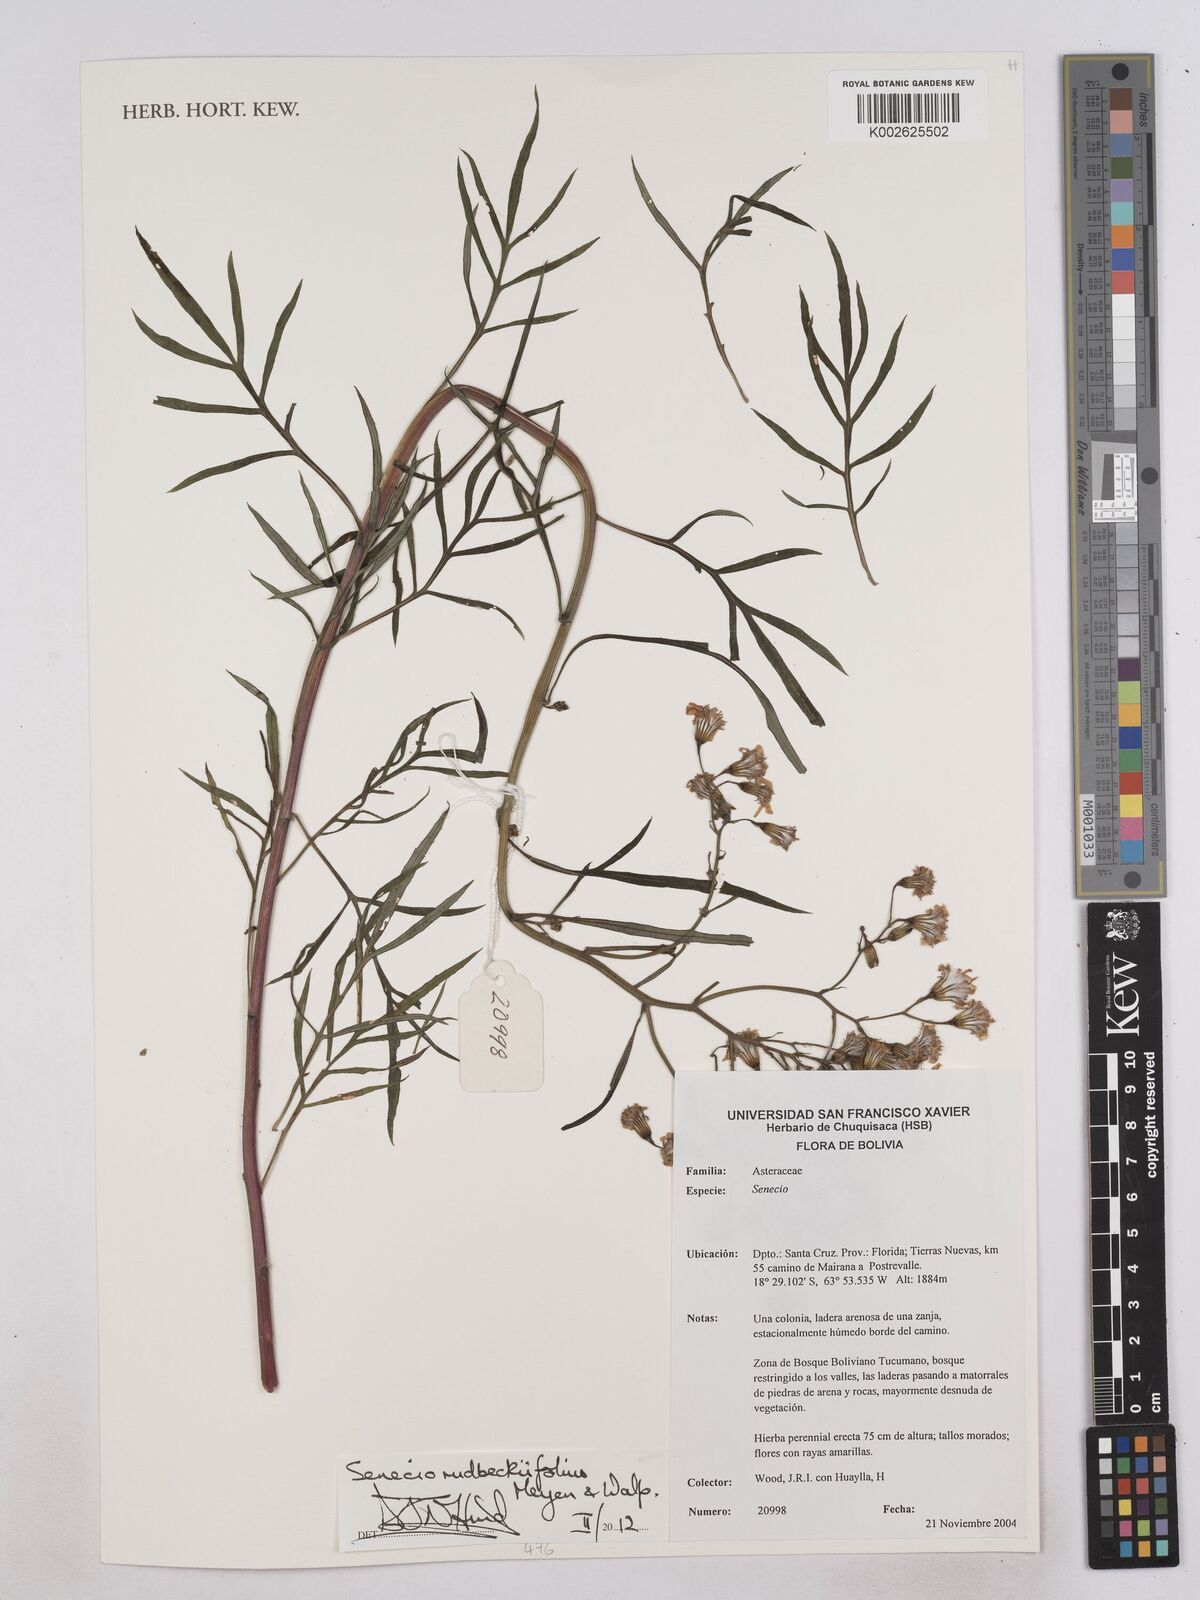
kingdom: Plantae
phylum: Tracheophyta
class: Magnoliopsida
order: Asterales
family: Asteraceae
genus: Senecio
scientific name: Senecio rudbeckiifolius
